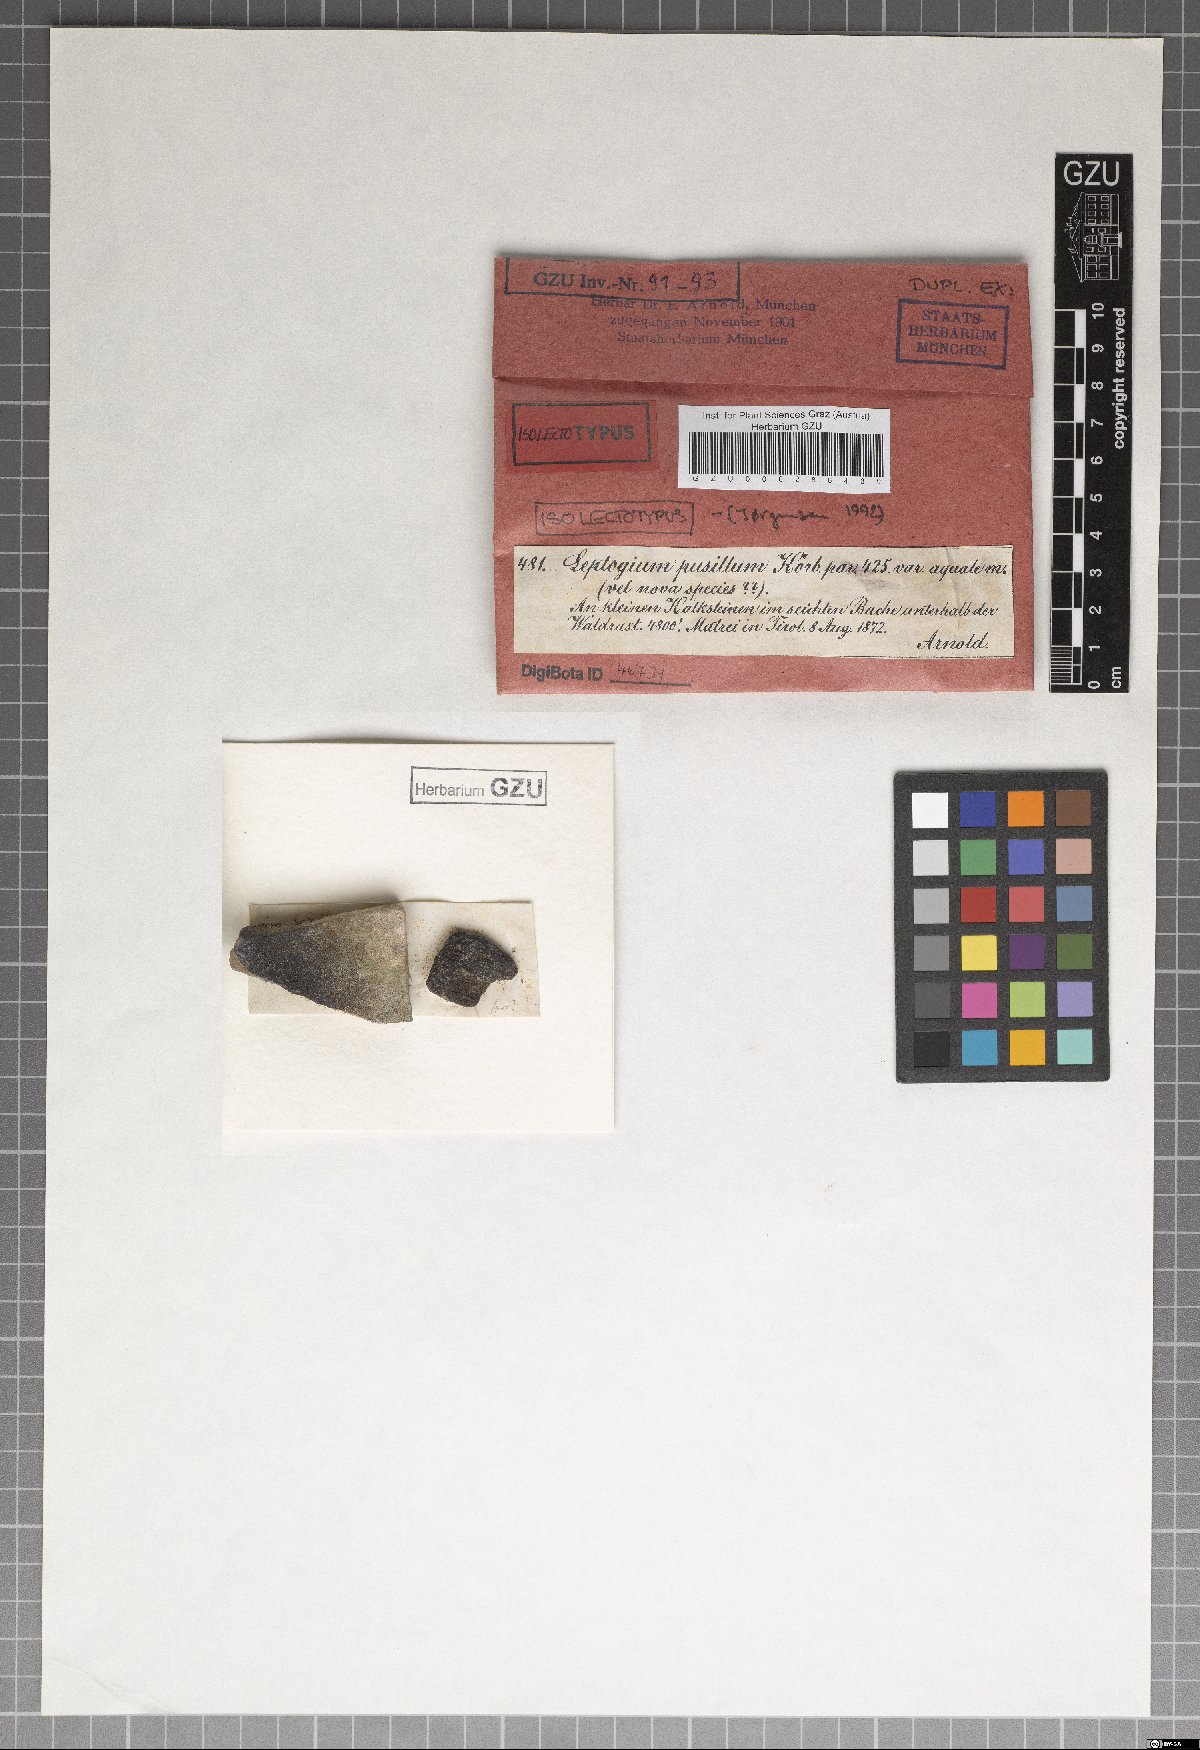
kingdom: Fungi
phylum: Ascomycota
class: Lecanoromycetes
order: Peltigerales
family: Collemataceae
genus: Scytinium
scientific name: Scytinium biatorinum
